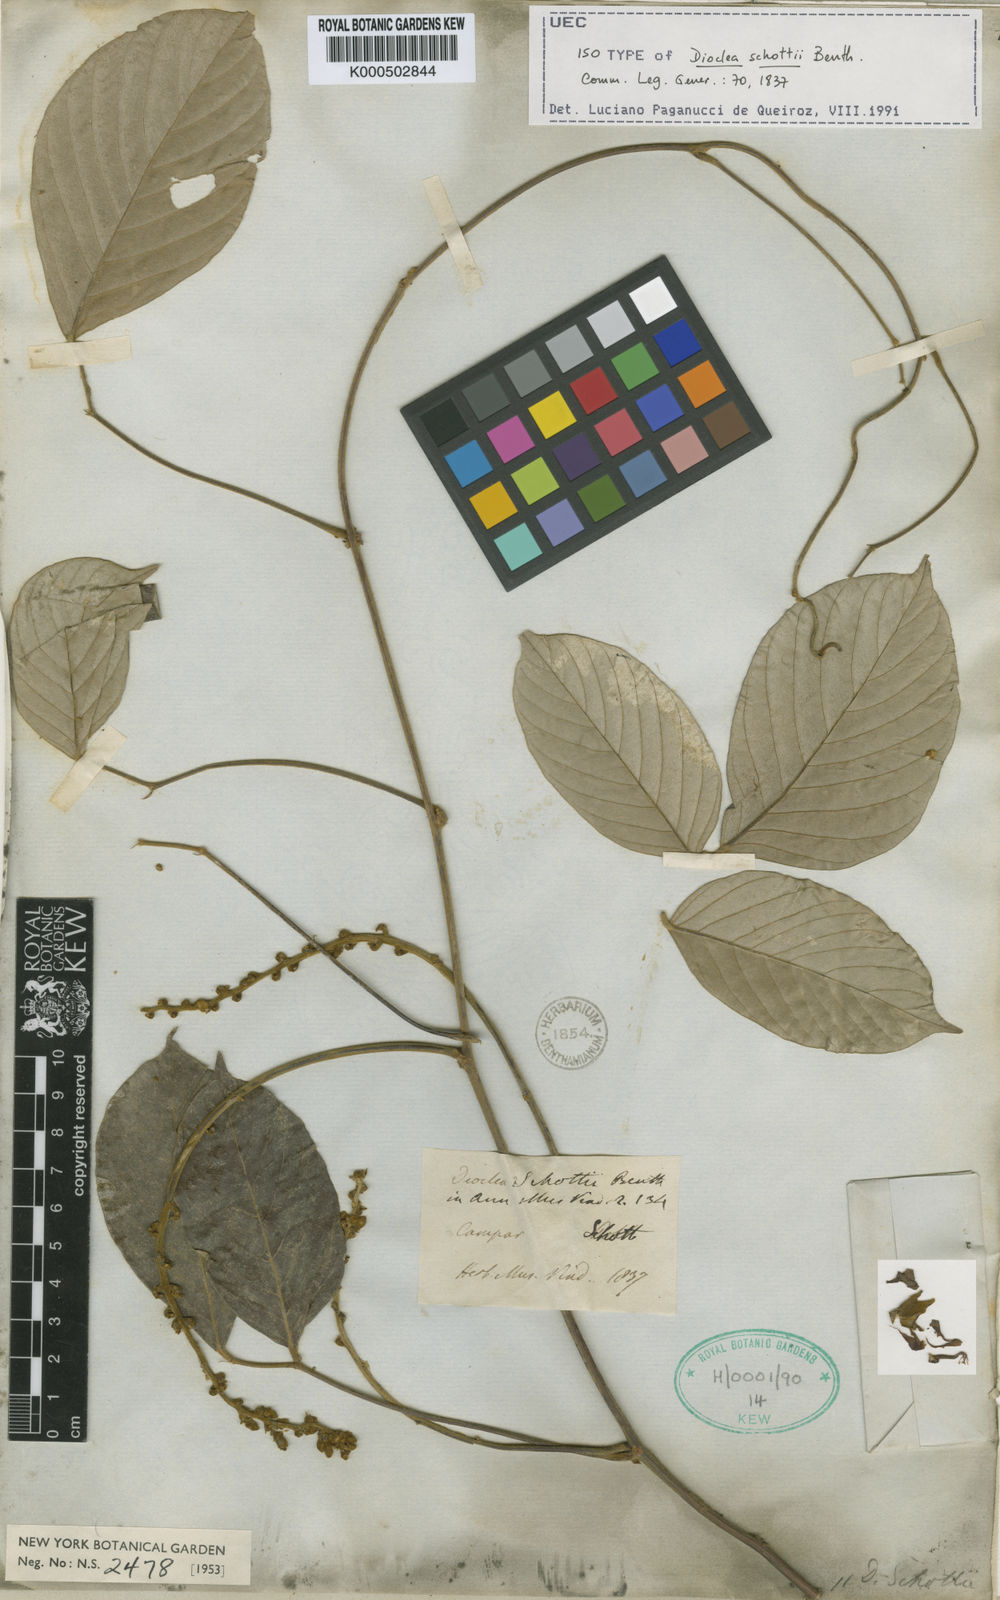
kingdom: Plantae
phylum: Tracheophyta
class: Magnoliopsida
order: Fabales
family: Fabaceae
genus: Macropsychanthus
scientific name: Macropsychanthus schottii
